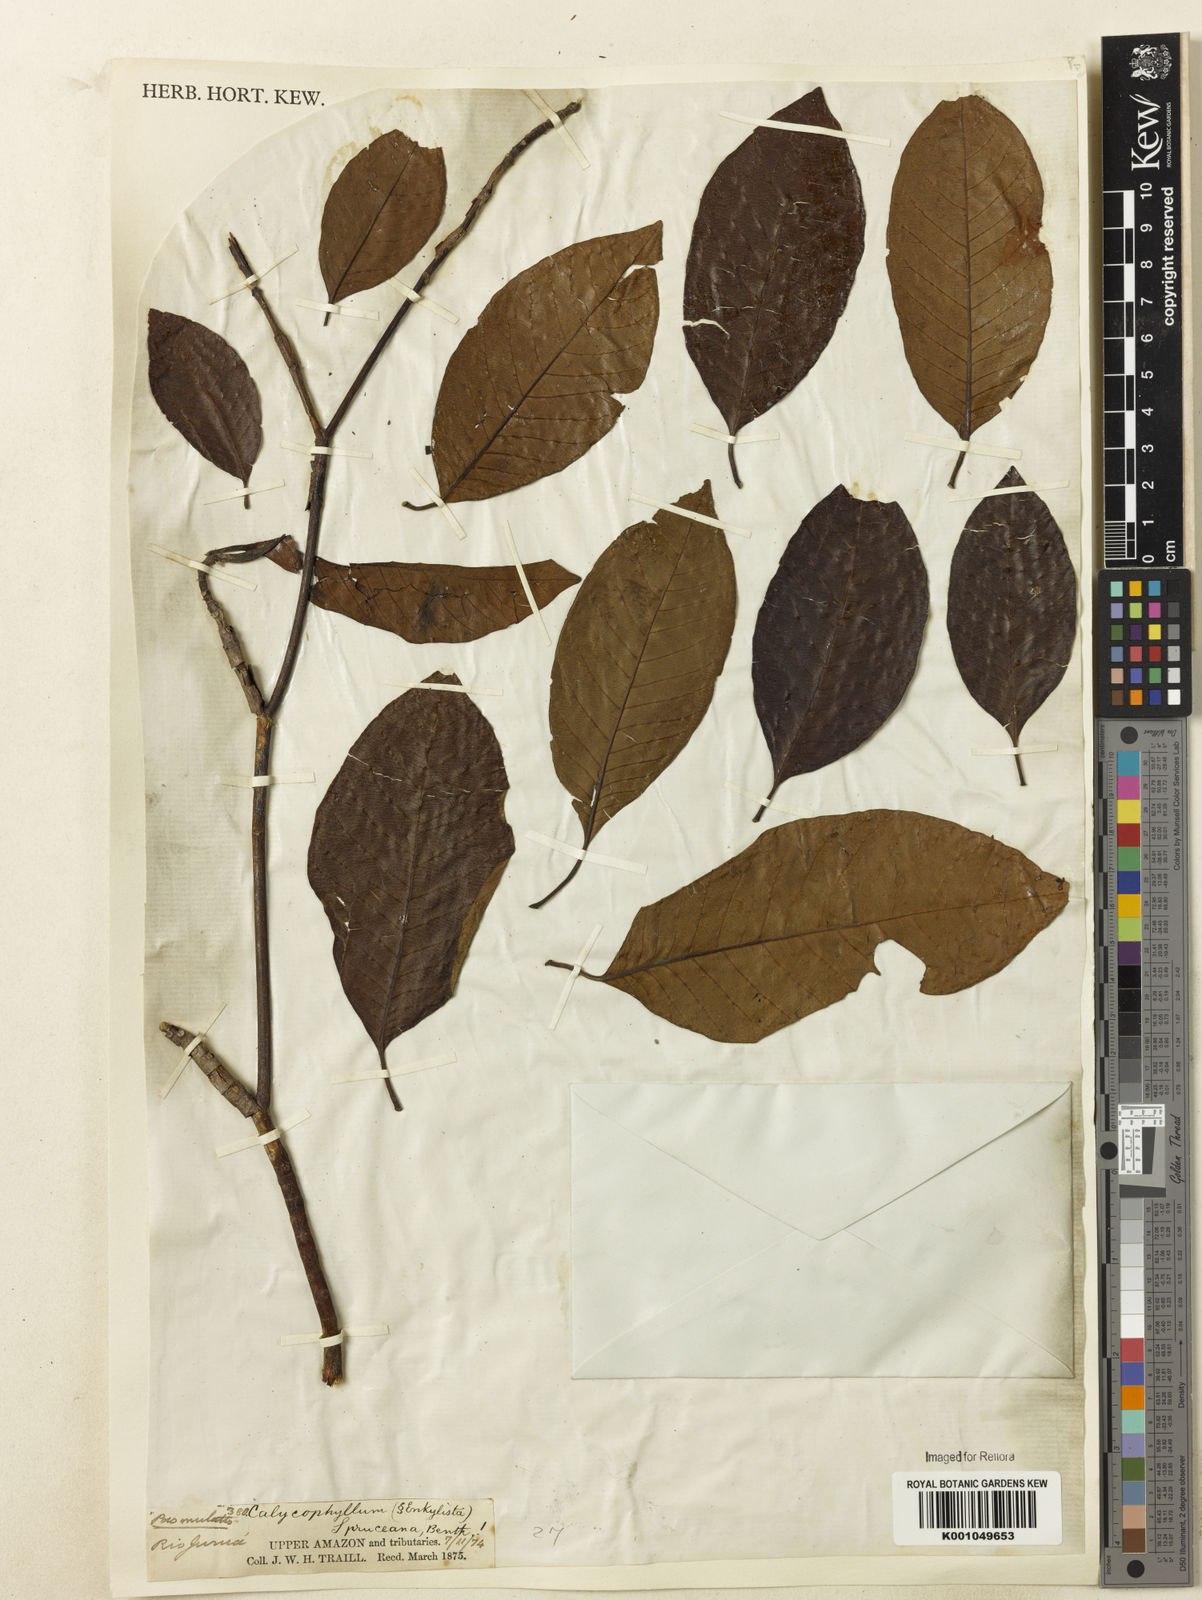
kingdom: Plantae
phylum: Tracheophyta
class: Magnoliopsida
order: Gentianales
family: Rubiaceae
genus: Calycophyllum
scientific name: Calycophyllum spruceanum
